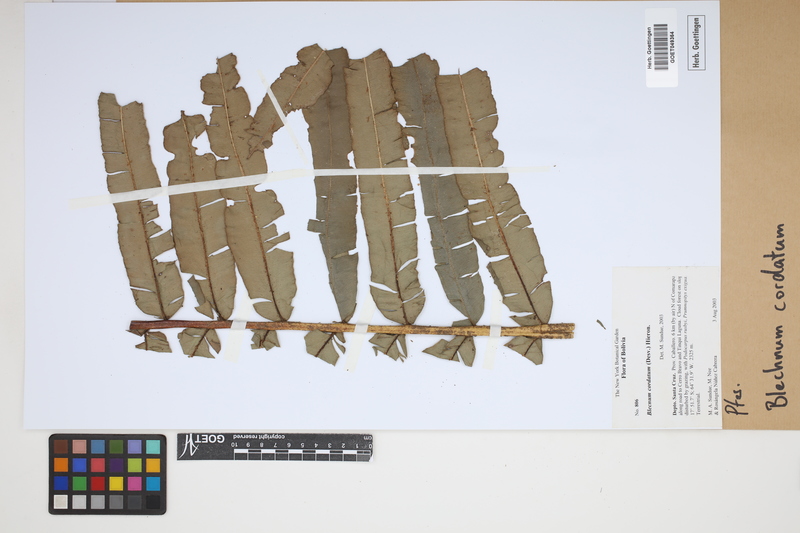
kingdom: Plantae
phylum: Tracheophyta
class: Polypodiopsida
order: Polypodiales
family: Blechnaceae
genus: Parablechnum
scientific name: Parablechnum cordatum
